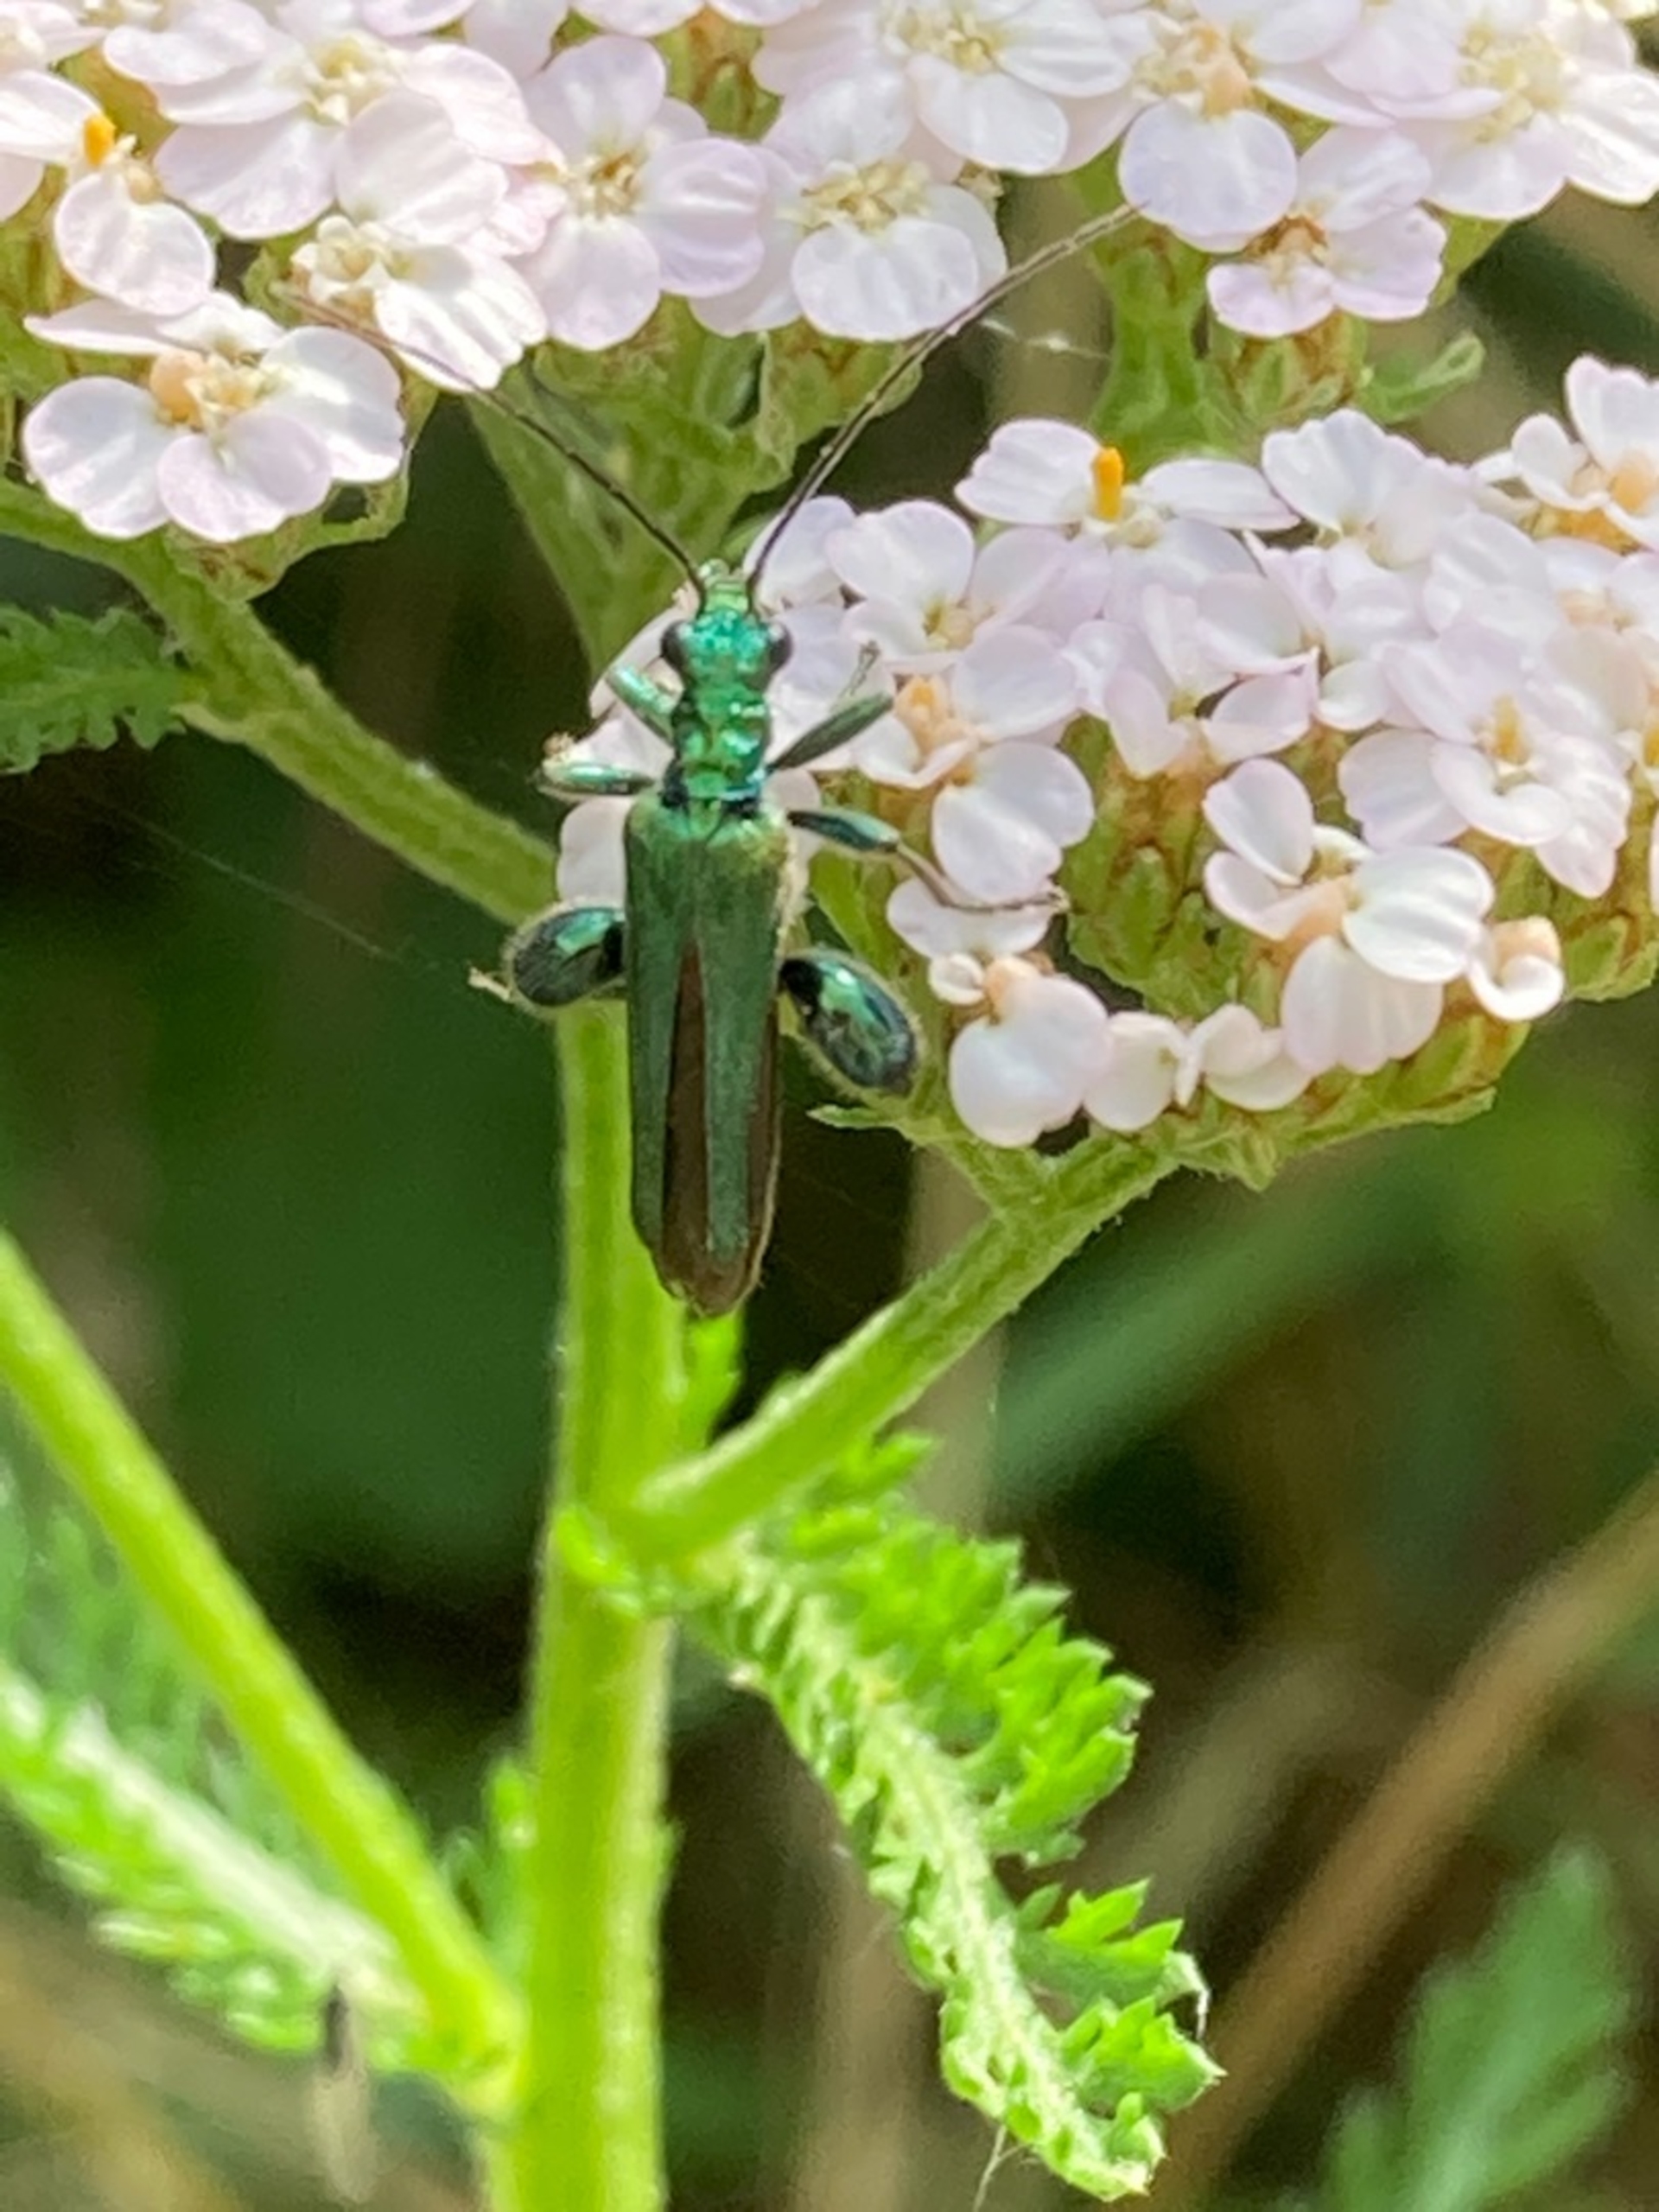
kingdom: Animalia
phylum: Arthropoda
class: Insecta
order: Coleoptera
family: Oedemeridae
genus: Oedemera
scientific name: Oedemera nobilis
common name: Tyklårssolbille
